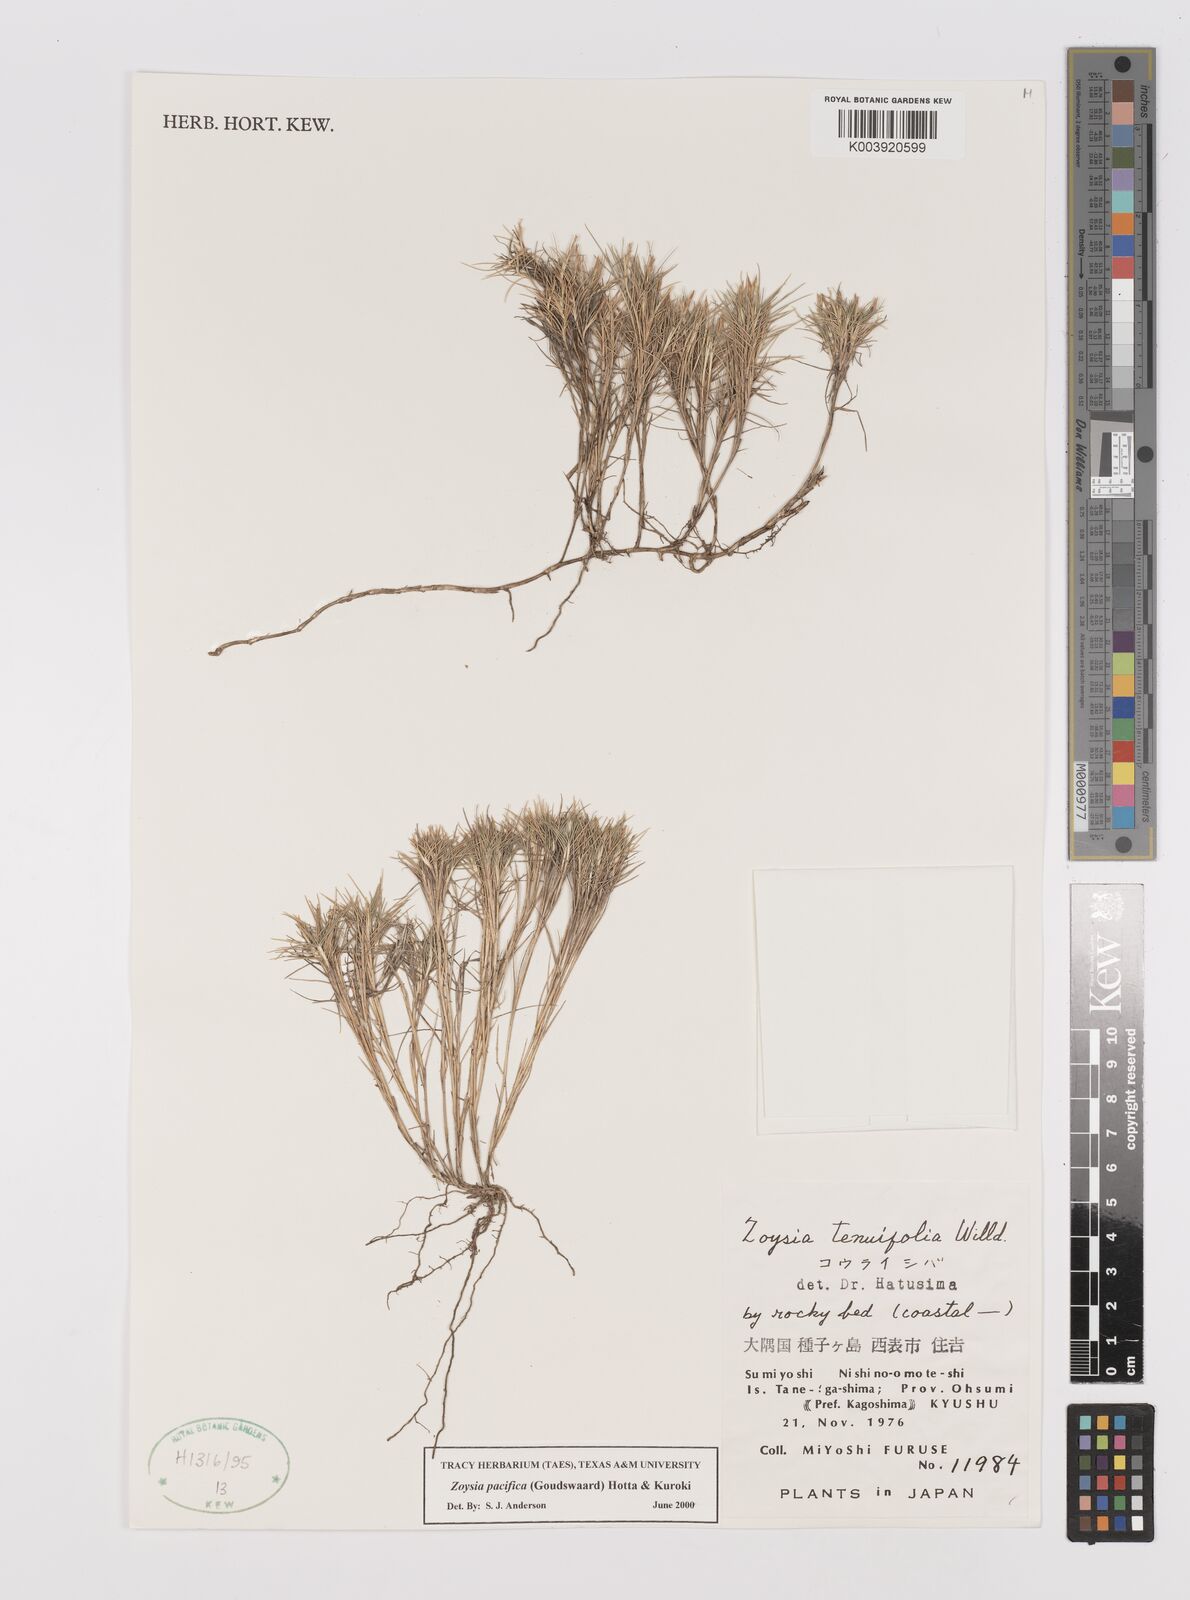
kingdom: Plantae
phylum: Tracheophyta
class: Liliopsida
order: Poales
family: Poaceae
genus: Zoysia
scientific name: Zoysia matrella
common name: Manila grass
